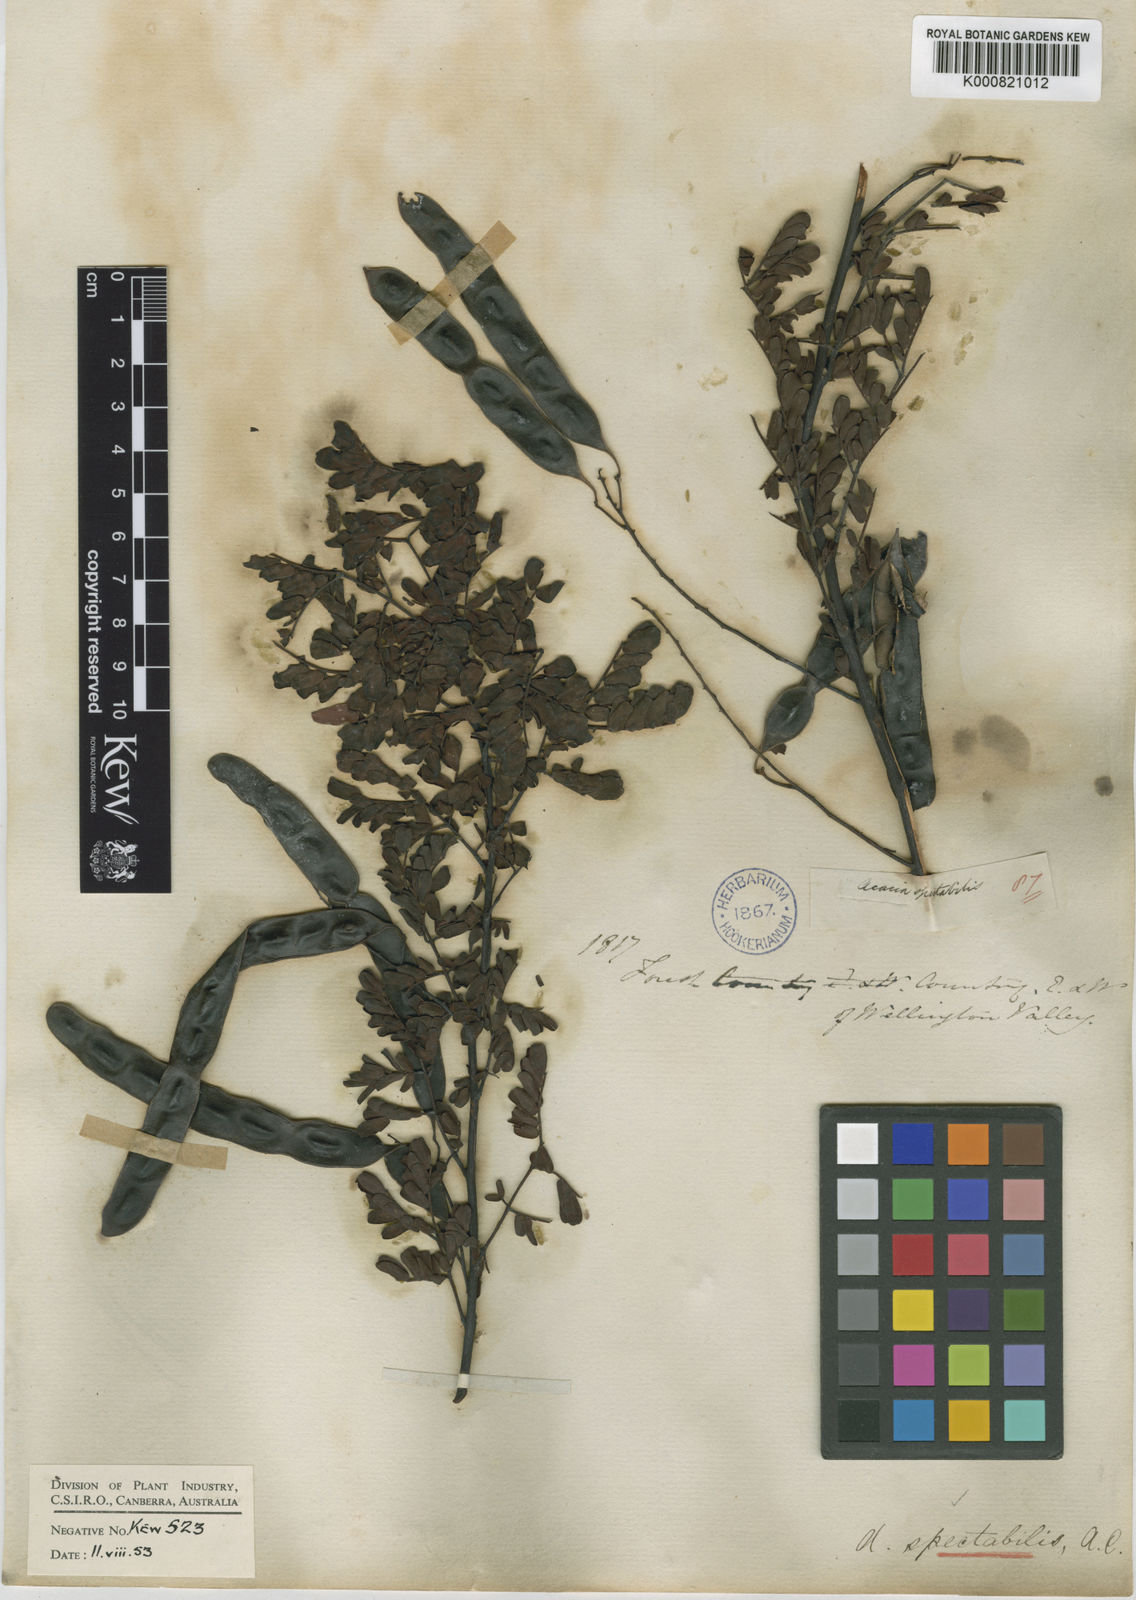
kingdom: Plantae
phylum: Tracheophyta
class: Magnoliopsida
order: Fabales
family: Fabaceae
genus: Acacia
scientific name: Acacia spectabilis
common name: Golden wattle
